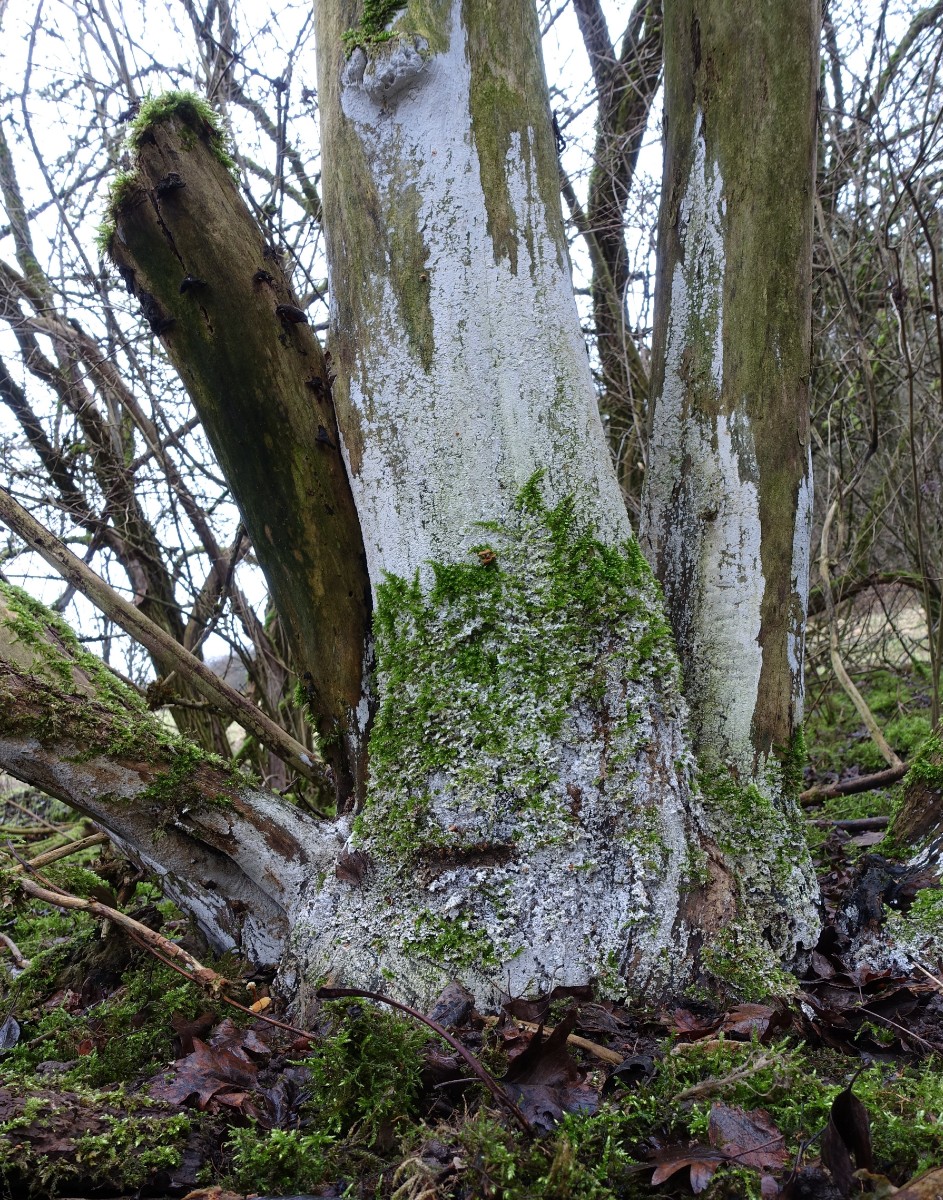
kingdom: Fungi
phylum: Basidiomycota
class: Agaricomycetes
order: Corticiales
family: Corticiaceae
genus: Lyomyces
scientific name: Lyomyces sambuci
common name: almindelig hyldehinde
